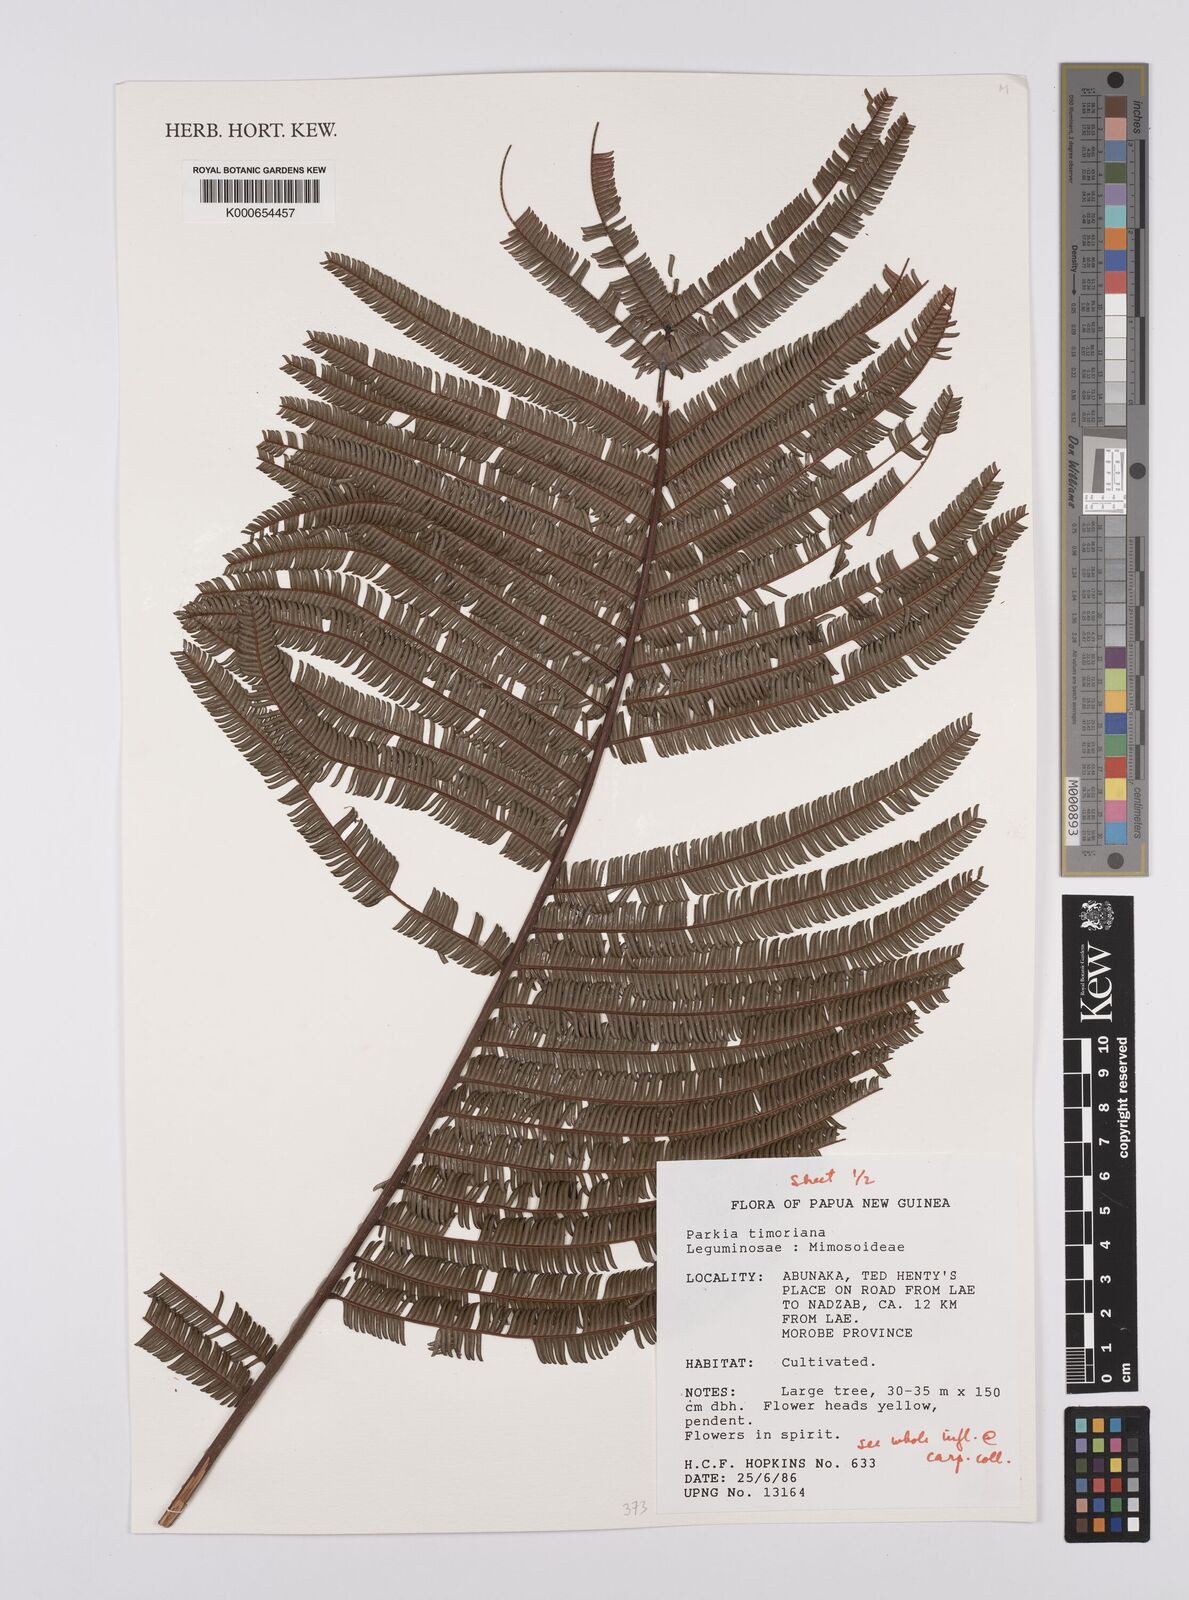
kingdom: Plantae
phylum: Tracheophyta
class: Magnoliopsida
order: Fabales
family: Fabaceae
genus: Parkia
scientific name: Parkia timoriana
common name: Legume
